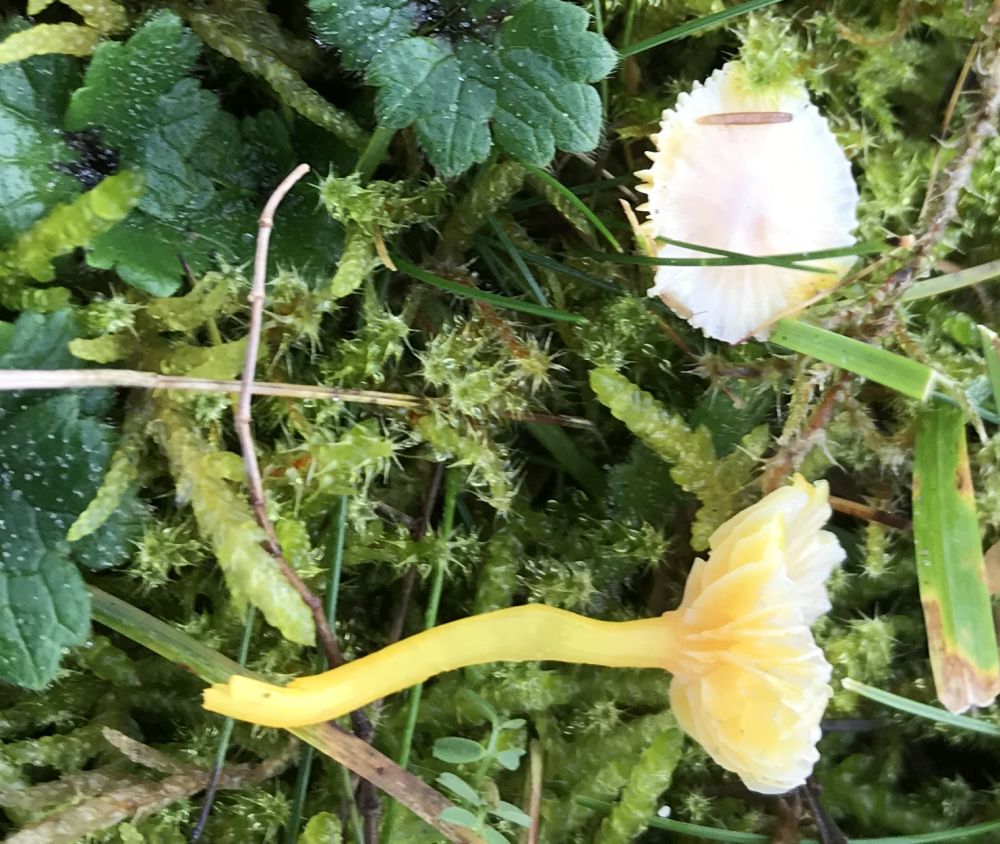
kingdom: Fungi
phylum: Basidiomycota
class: Agaricomycetes
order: Agaricales
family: Hygrophoraceae
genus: Hygrocybe
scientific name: Hygrocybe
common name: vokshat
